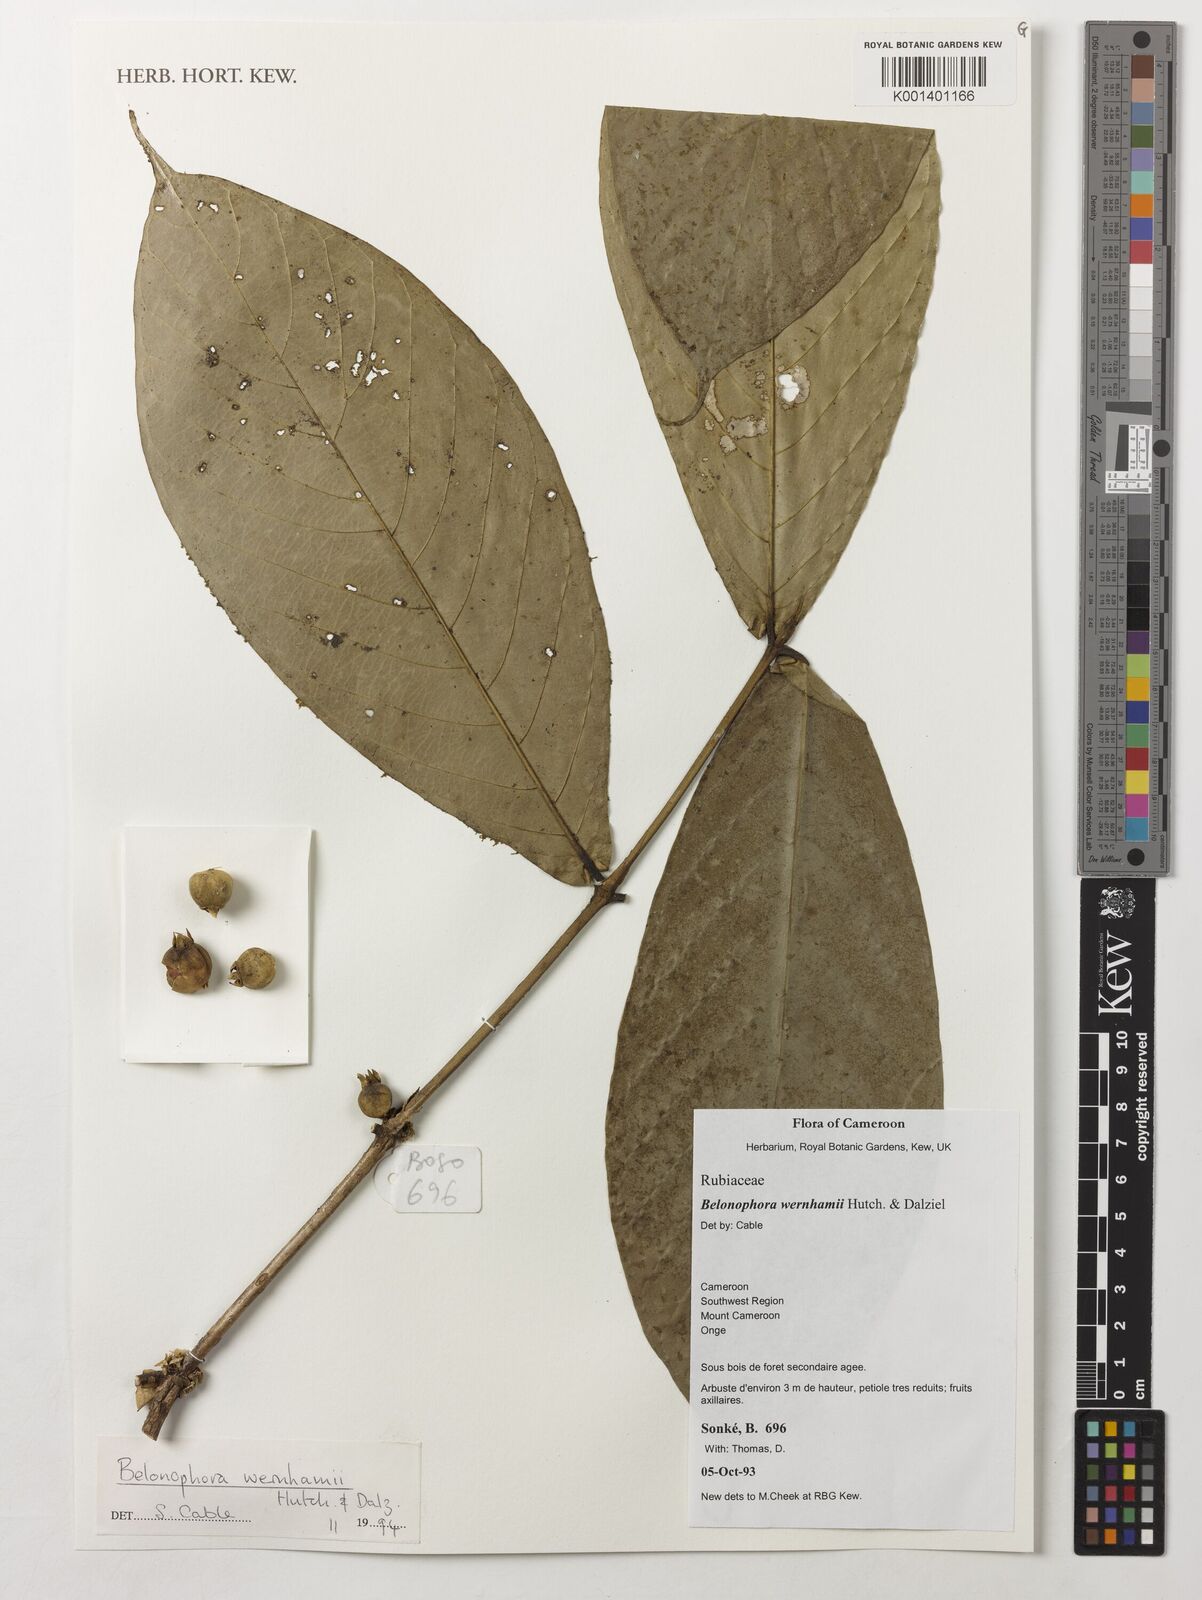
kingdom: Plantae
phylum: Tracheophyta
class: Magnoliopsida
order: Gentianales
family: Rubiaceae
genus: Belonophora
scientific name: Belonophora wernhamii
